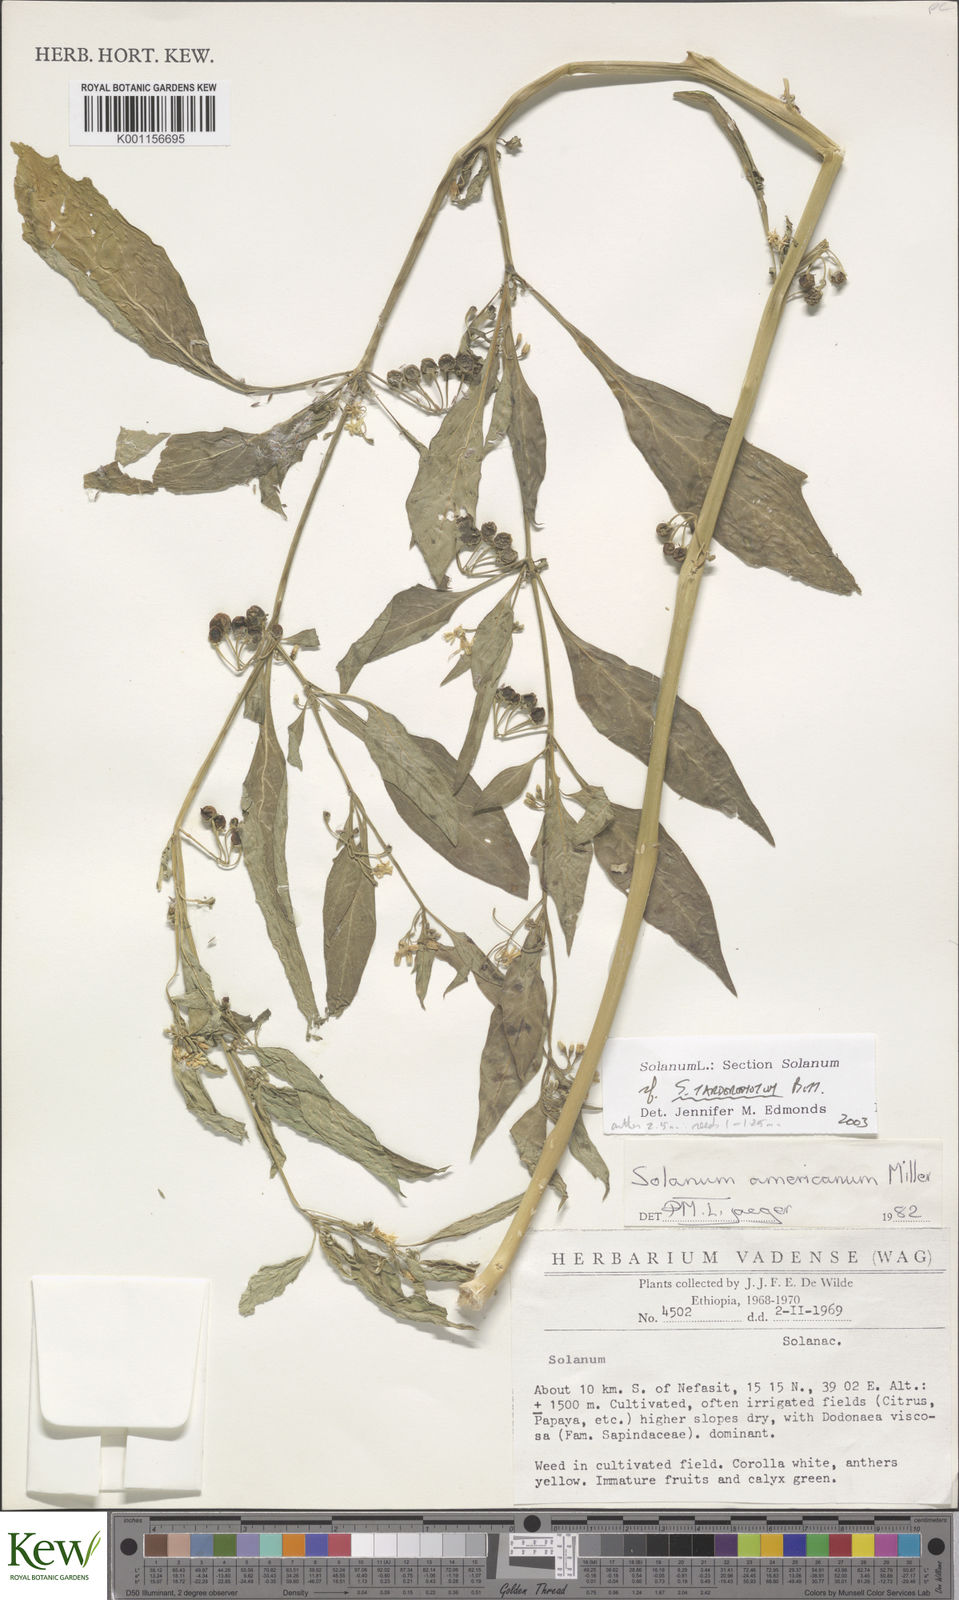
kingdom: Plantae
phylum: Tracheophyta
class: Magnoliopsida
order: Solanales
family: Solanaceae
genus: Solanum
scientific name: Solanum tarderemotum
